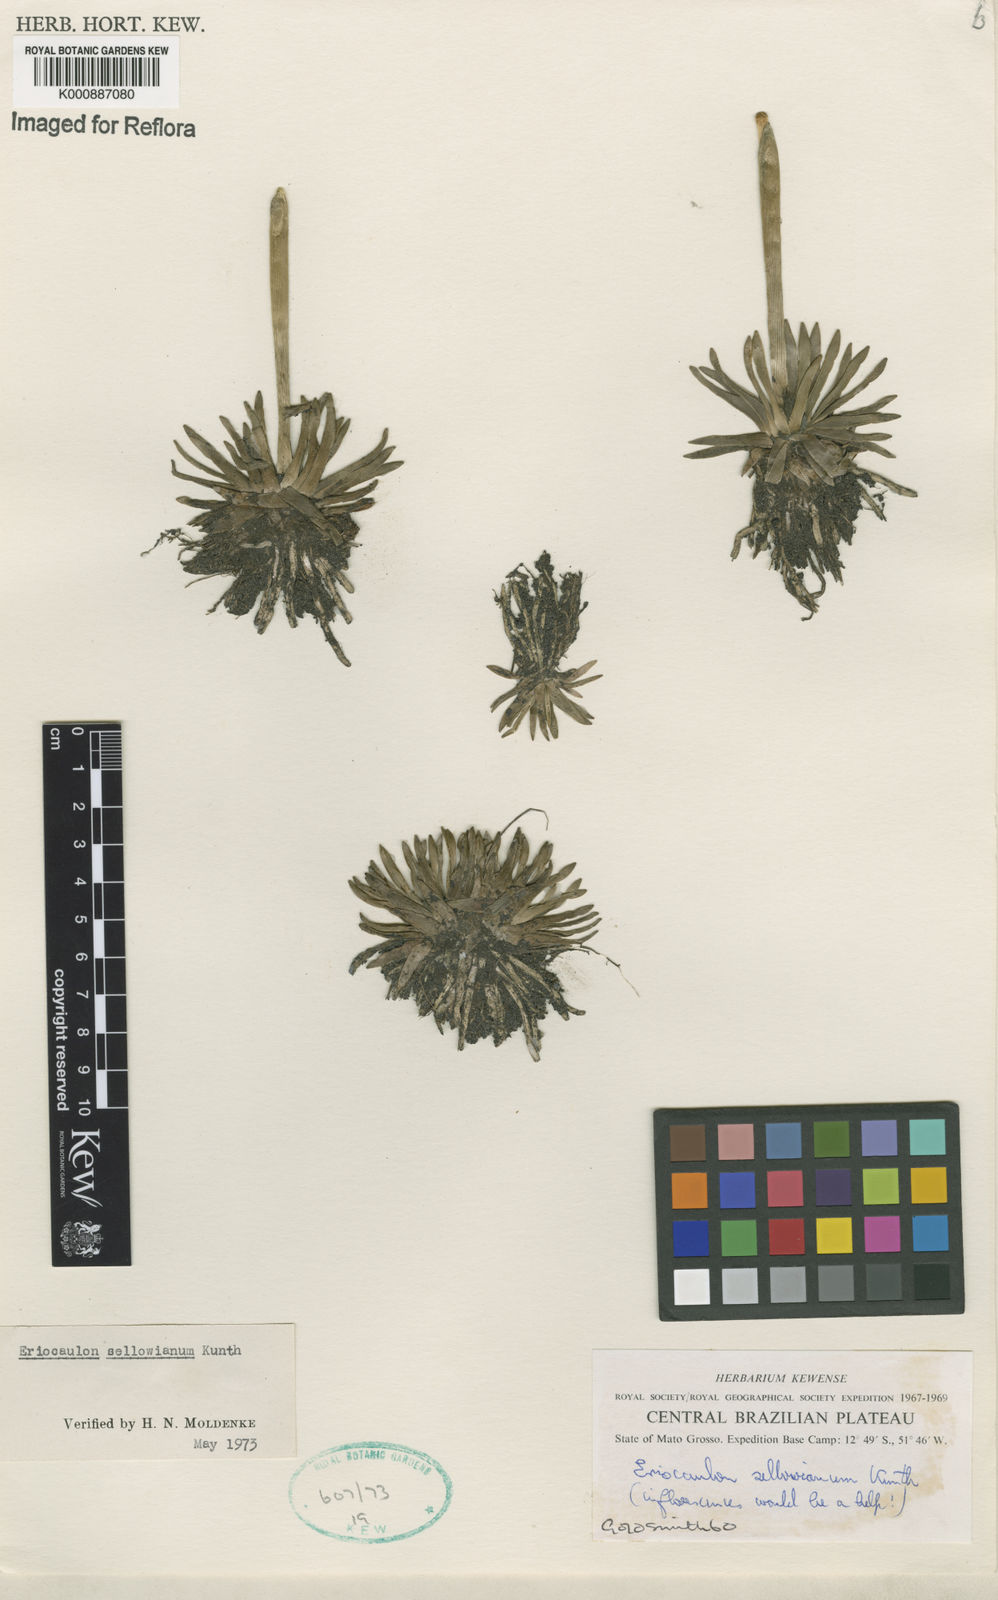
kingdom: Plantae
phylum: Tracheophyta
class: Liliopsida
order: Poales
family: Eriocaulaceae
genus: Eriocaulon
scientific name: Eriocaulon sellowianum
